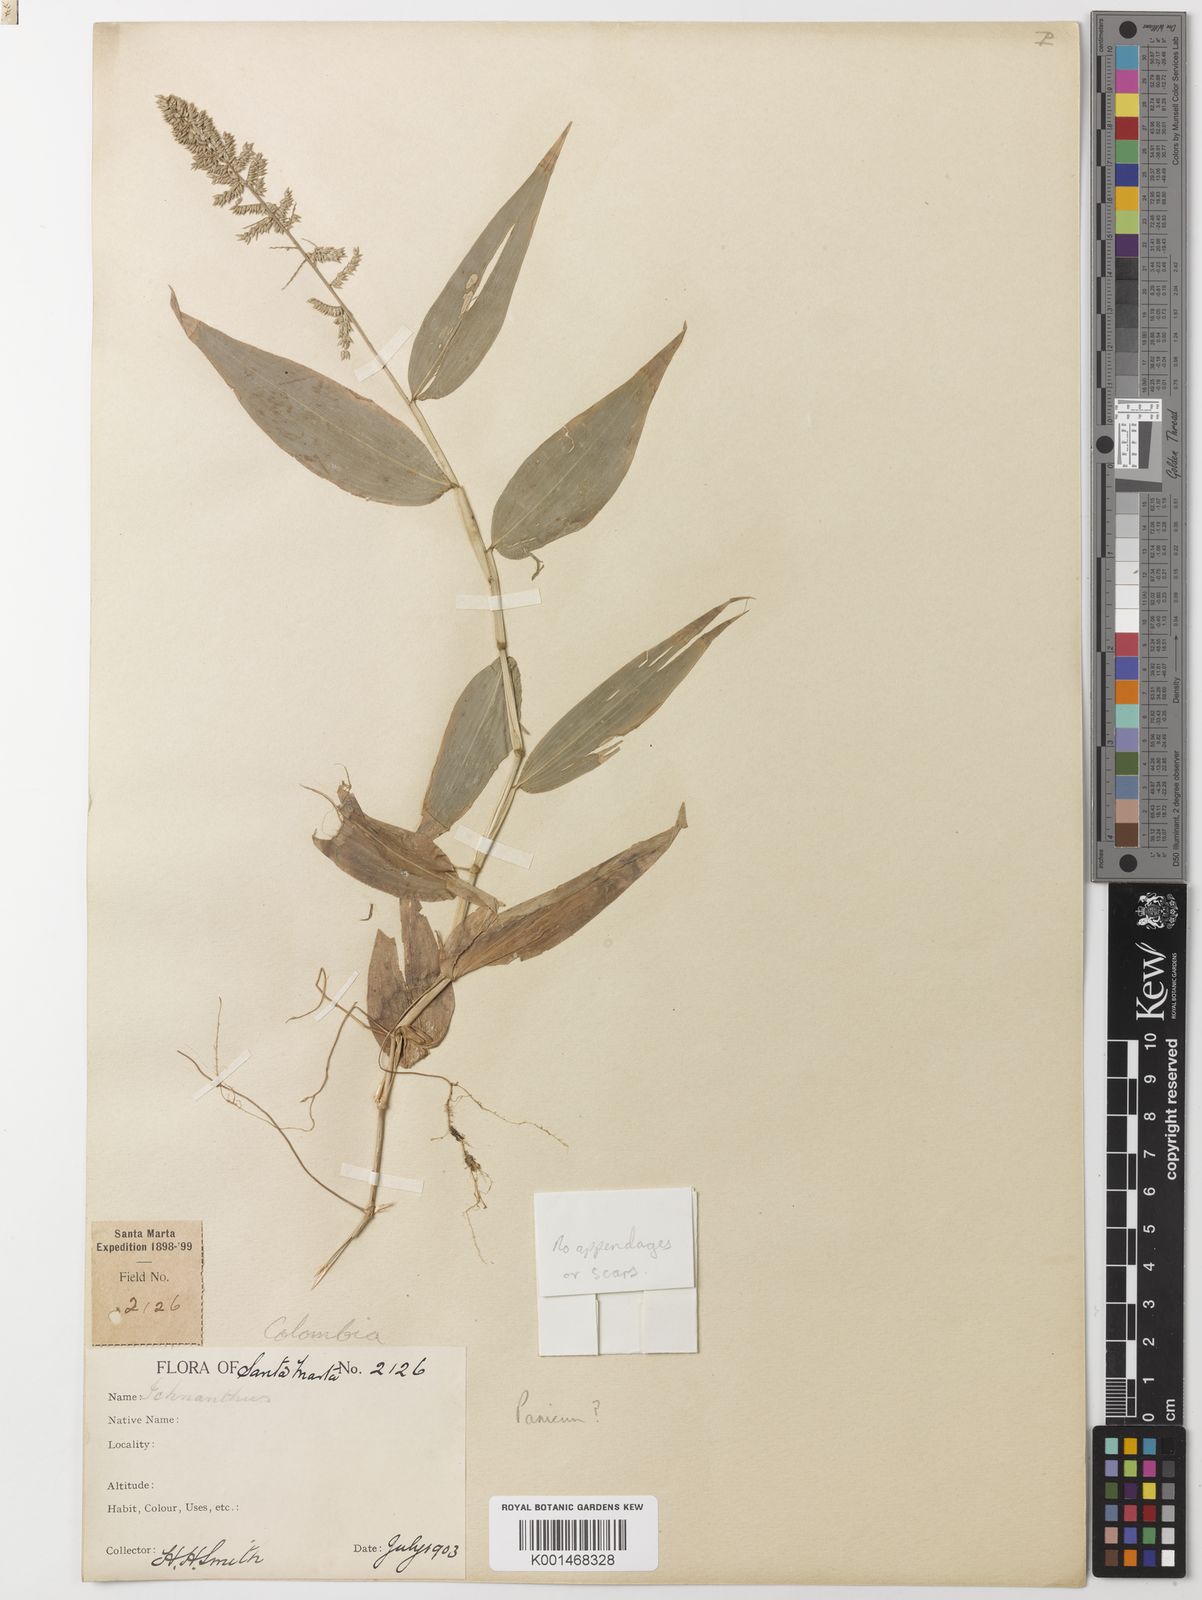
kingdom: Plantae
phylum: Tracheophyta
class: Liliopsida
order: Poales
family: Poaceae
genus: Ocellochloa
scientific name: Ocellochloa stolonifera
